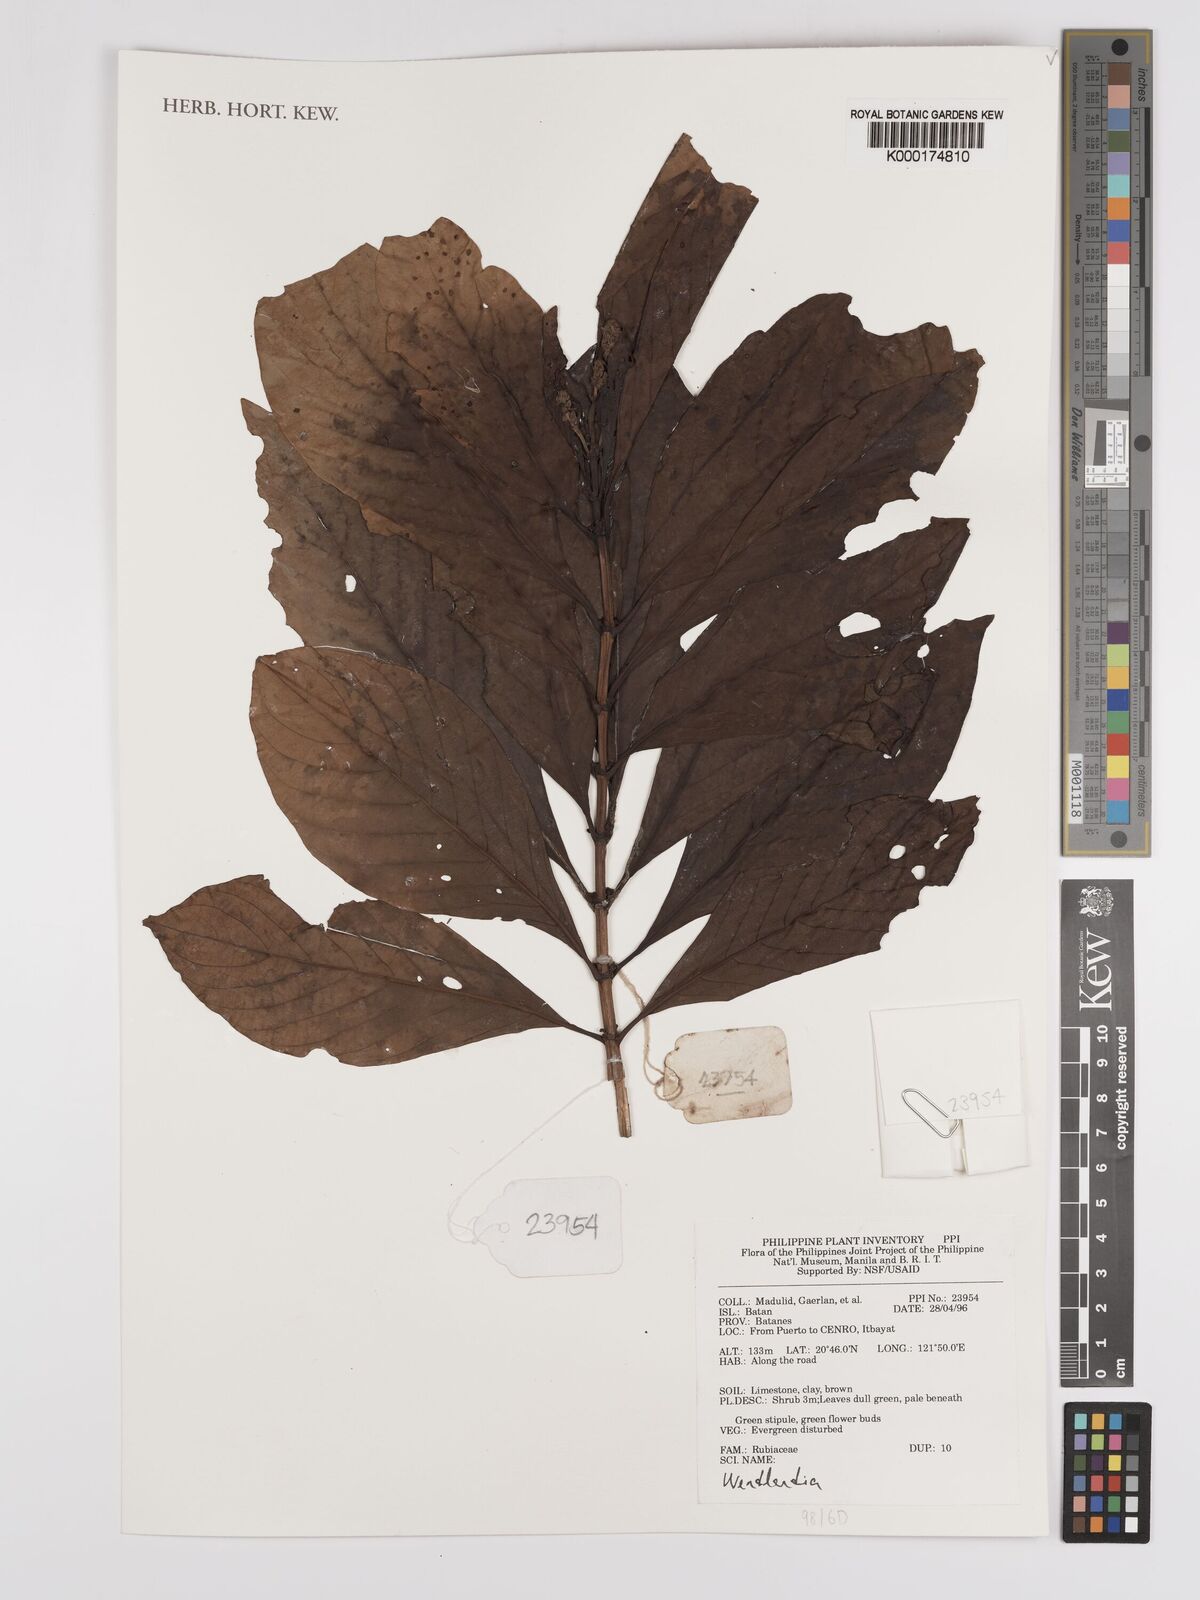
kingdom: Plantae
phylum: Tracheophyta
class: Magnoliopsida
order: Gentianales
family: Rubiaceae
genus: Wendlandia
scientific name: Wendlandia
